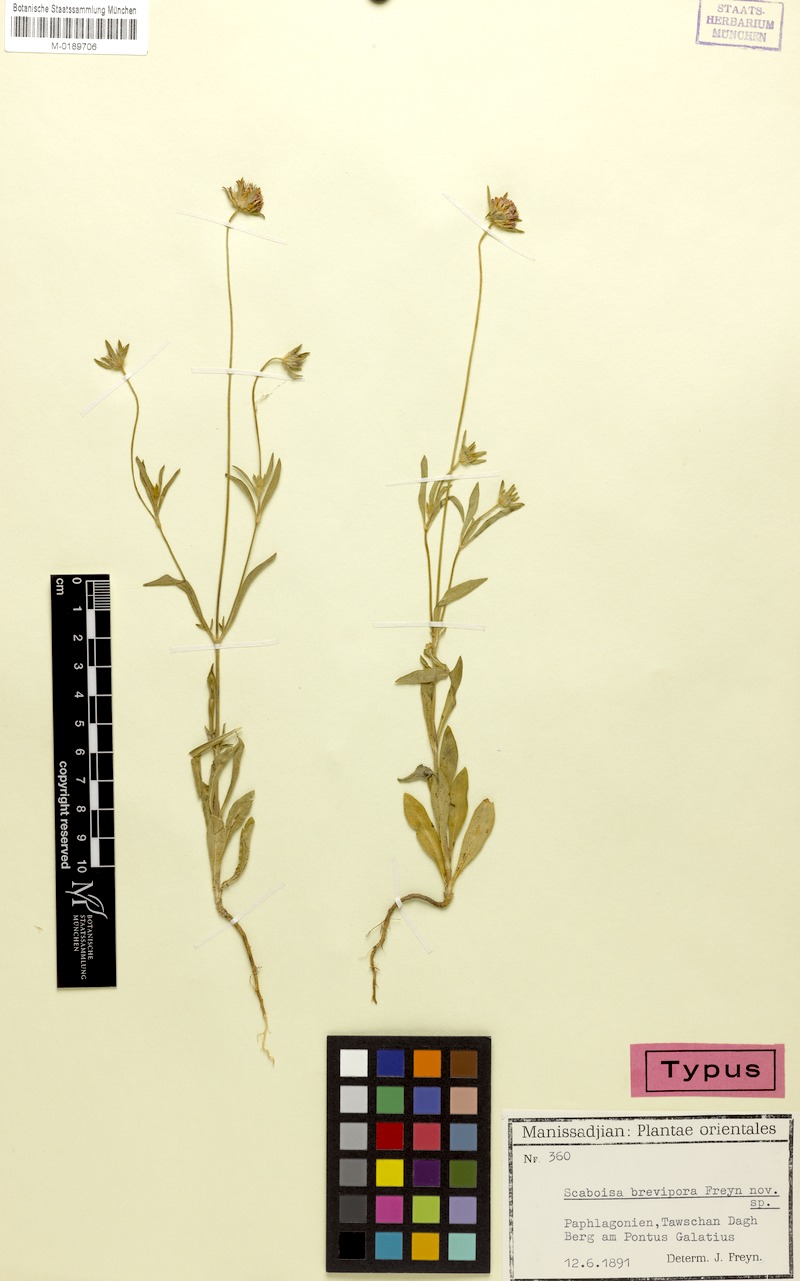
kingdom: Plantae
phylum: Tracheophyta
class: Magnoliopsida
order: Dipsacales
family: Caprifoliaceae
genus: Lomelosia
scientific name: Lomelosia micrantha
